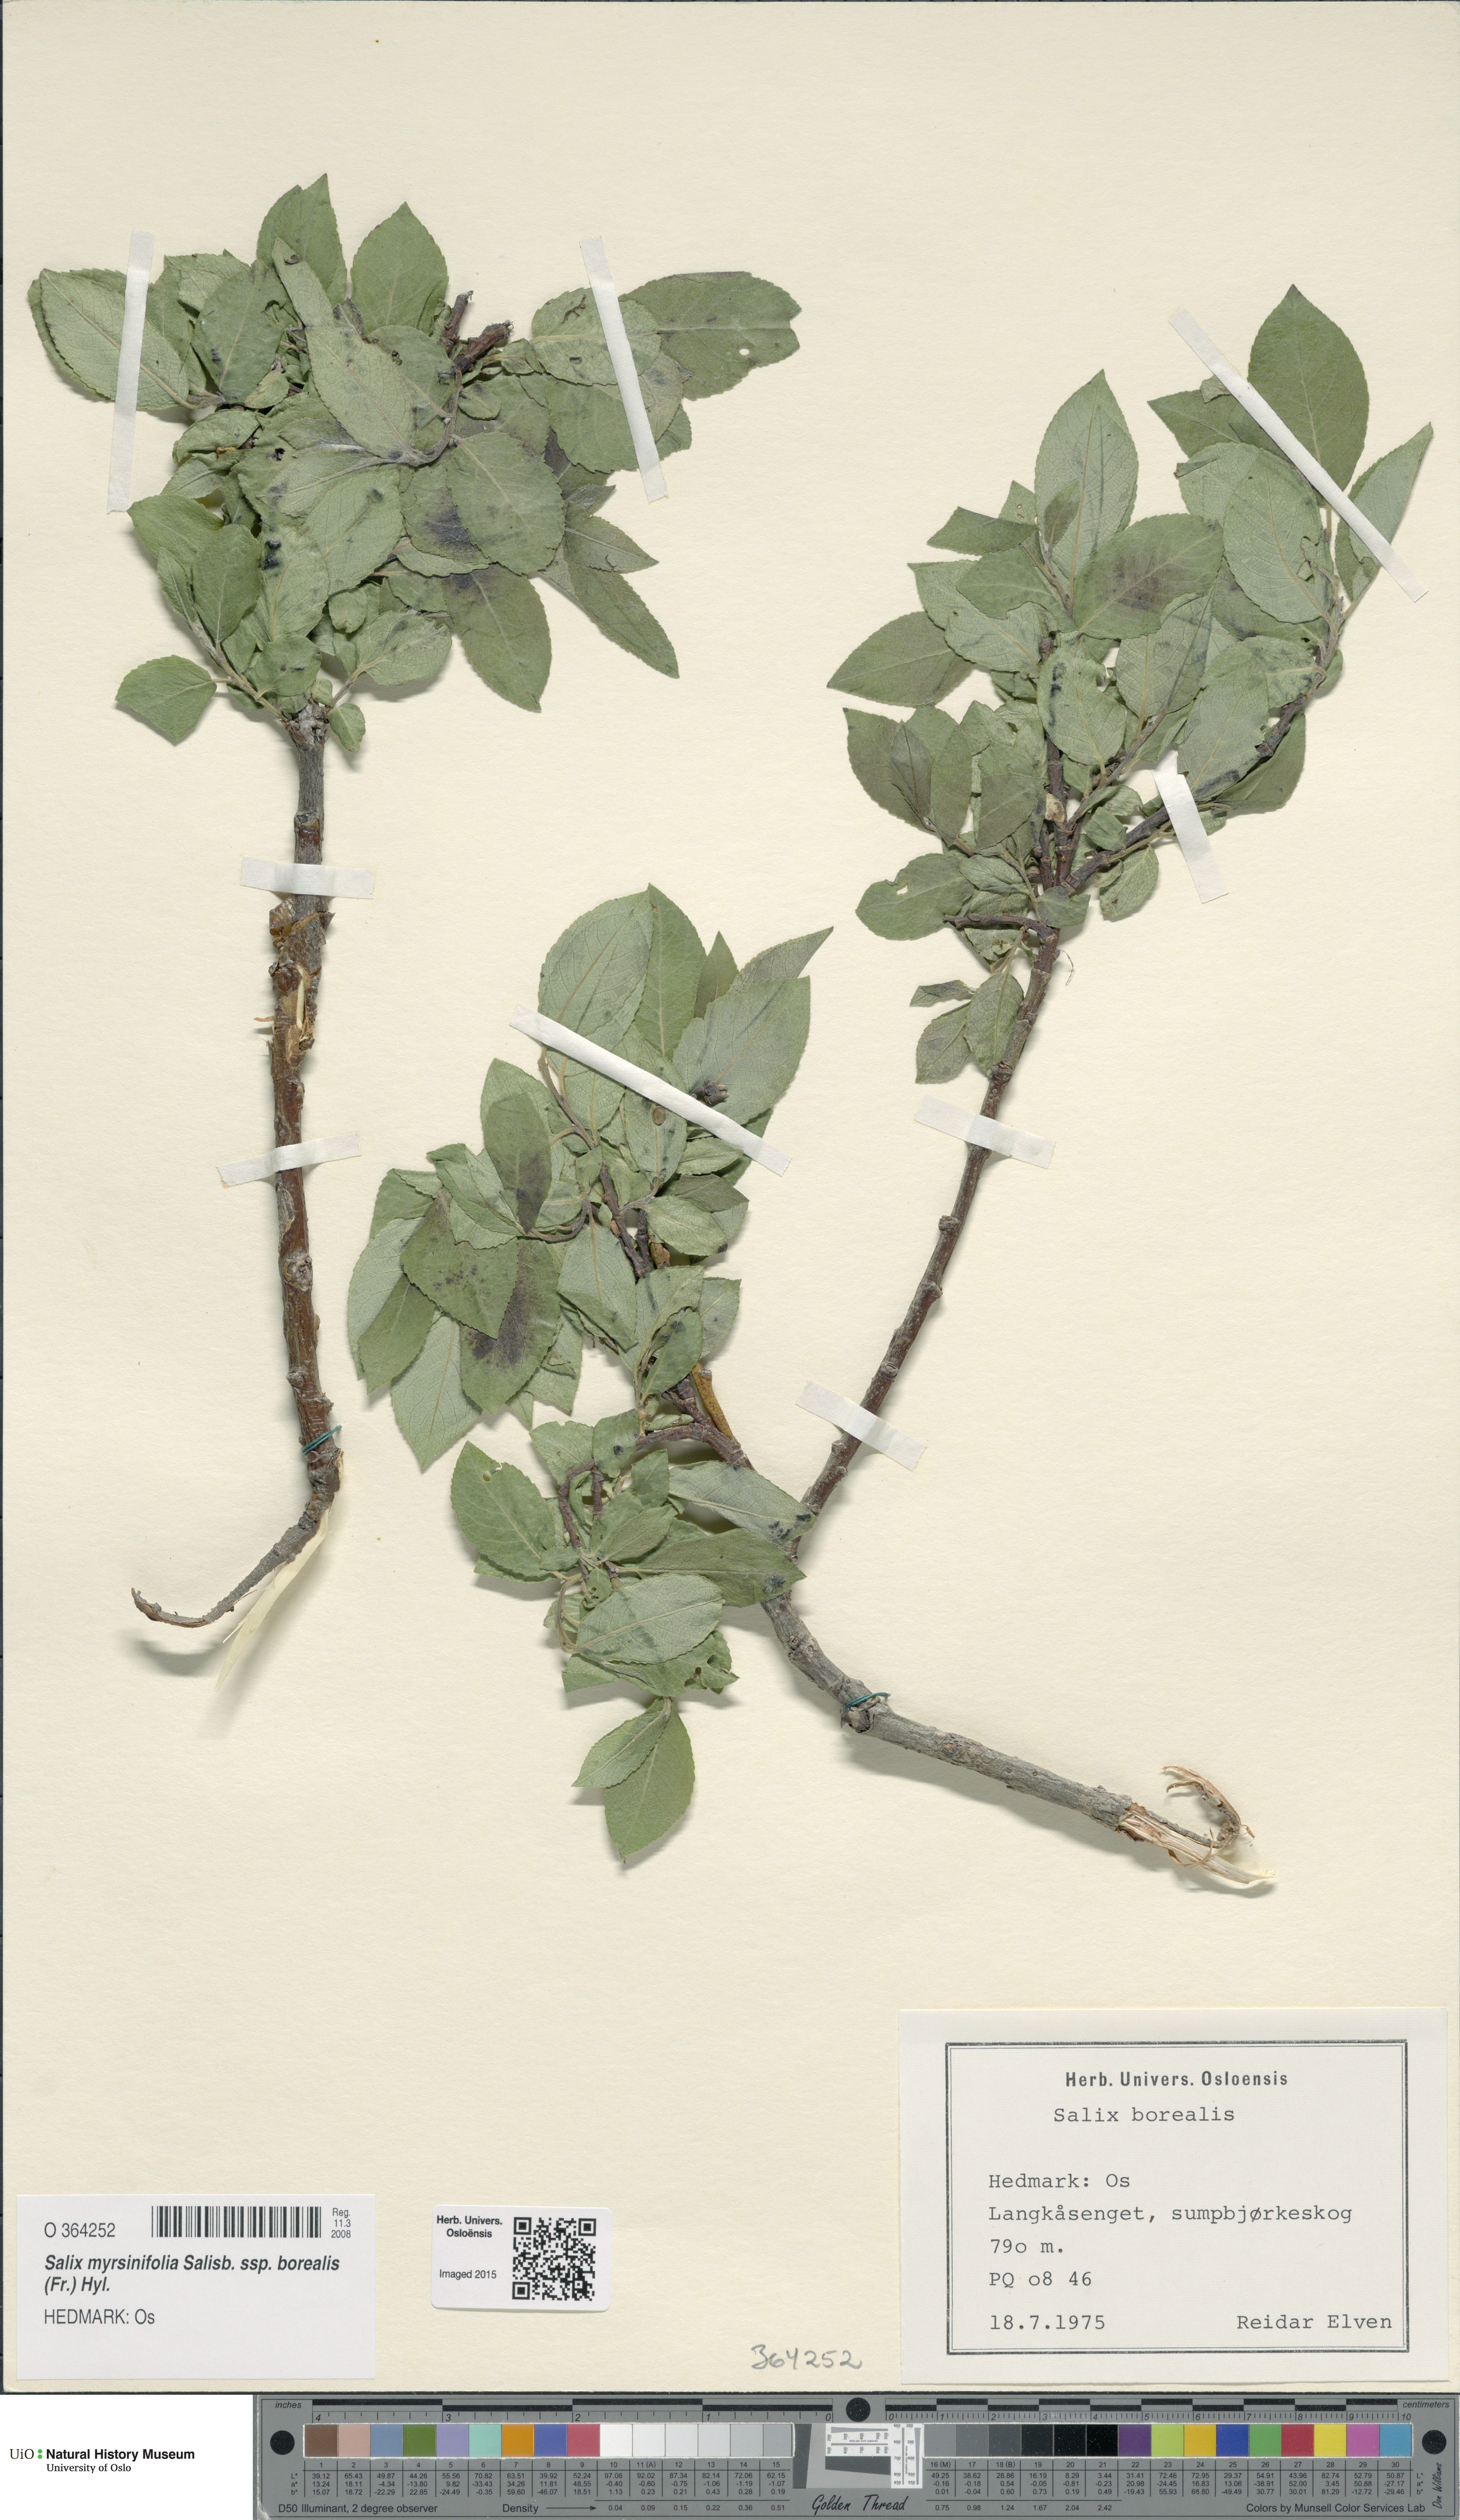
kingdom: Plantae
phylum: Tracheophyta
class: Magnoliopsida
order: Malpighiales
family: Salicaceae
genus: Salix
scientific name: Salix myrsinifolia
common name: Dark-leaved willow
